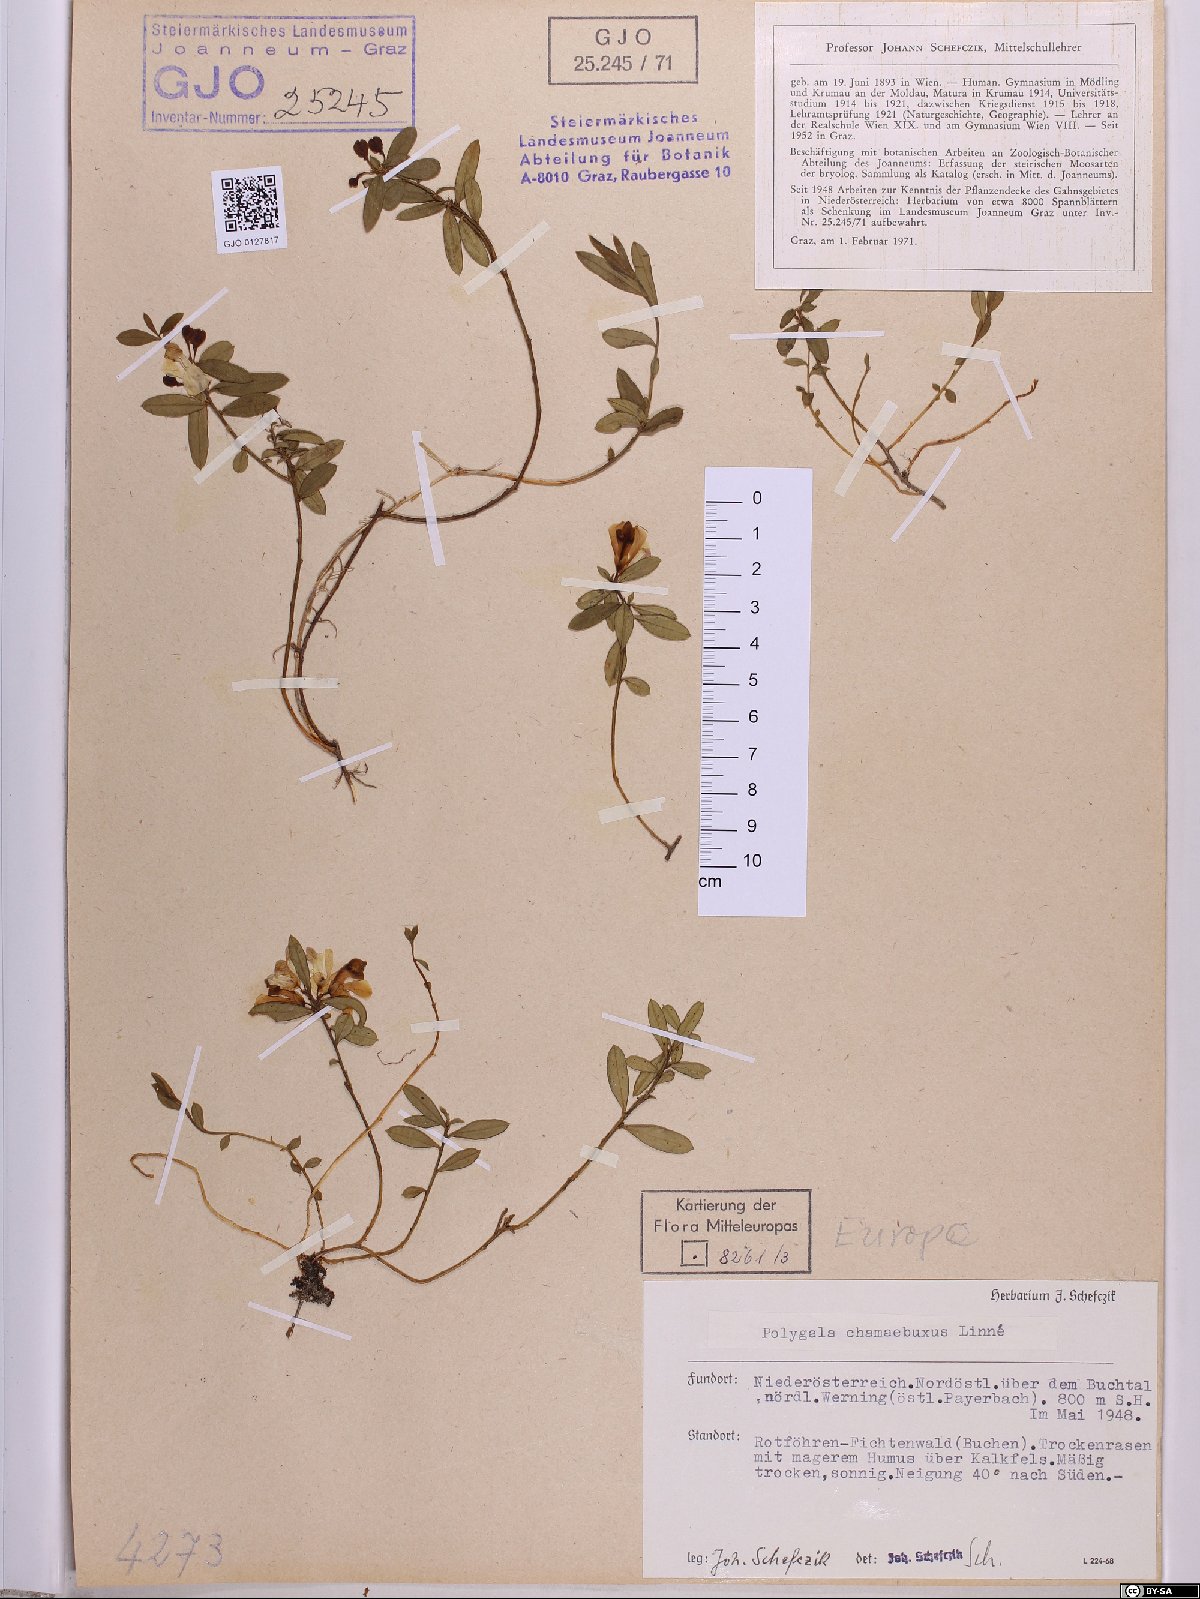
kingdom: Plantae
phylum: Tracheophyta
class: Magnoliopsida
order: Fabales
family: Polygalaceae
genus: Polygaloides
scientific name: Polygaloides chamaebuxus
